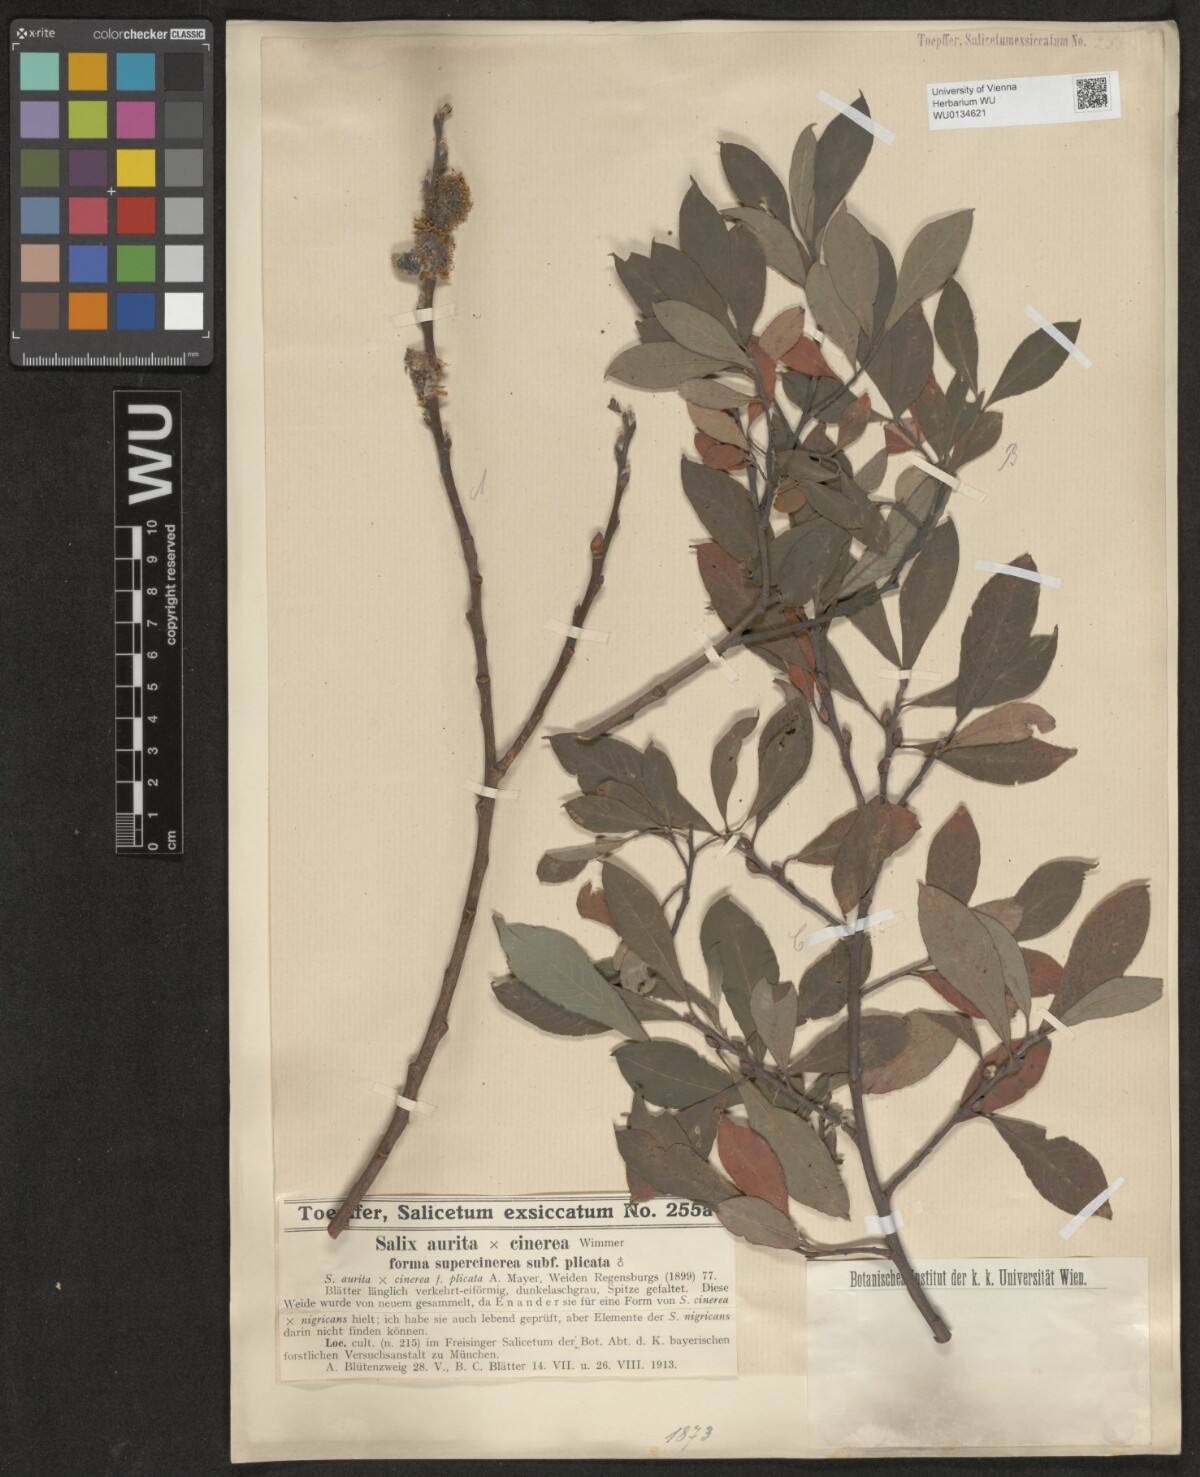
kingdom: Plantae
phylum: Tracheophyta
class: Magnoliopsida
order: Malpighiales
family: Salicaceae
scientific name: Salicaceae
